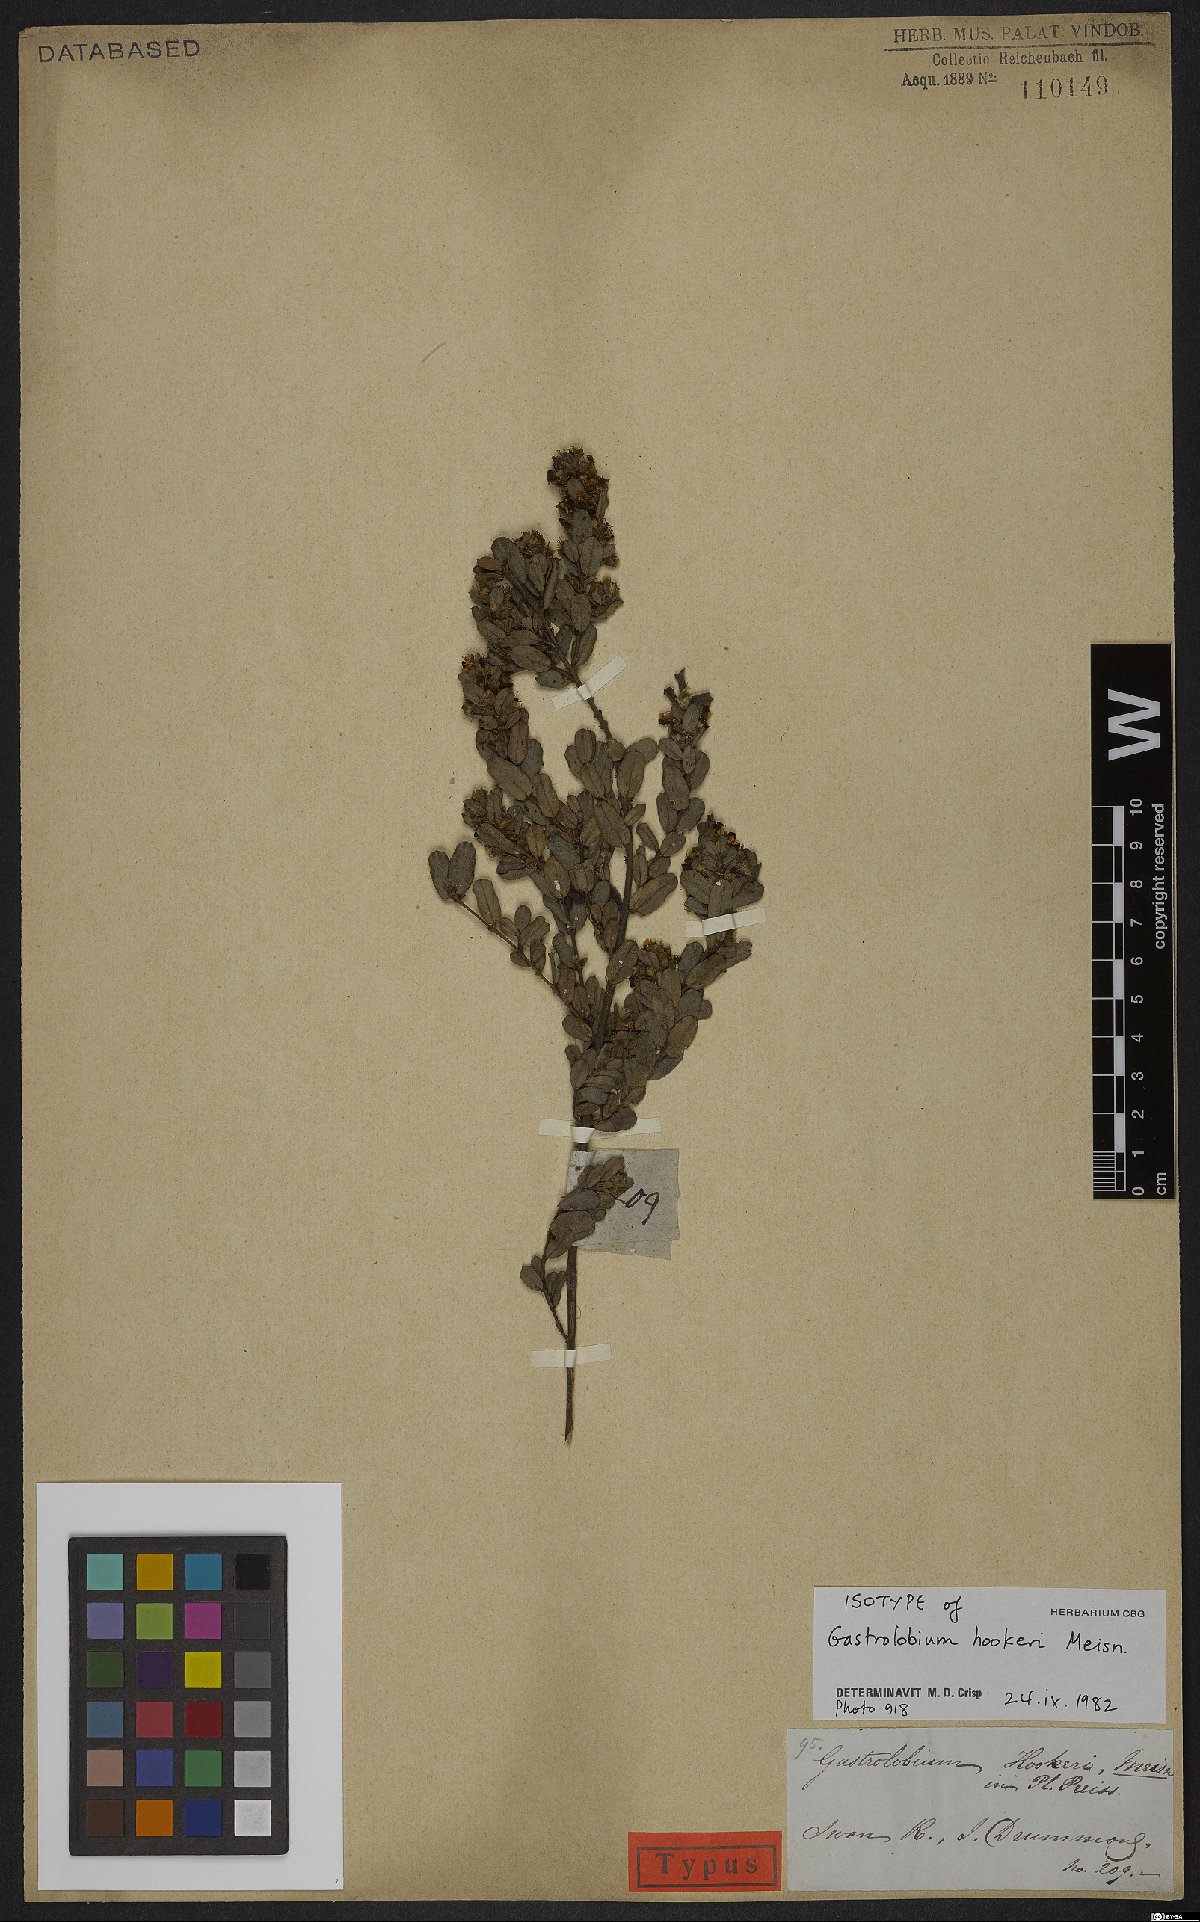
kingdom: Plantae
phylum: Tracheophyta
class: Magnoliopsida
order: Fabales
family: Fabaceae
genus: Gastrolobium
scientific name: Gastrolobium hookeri
